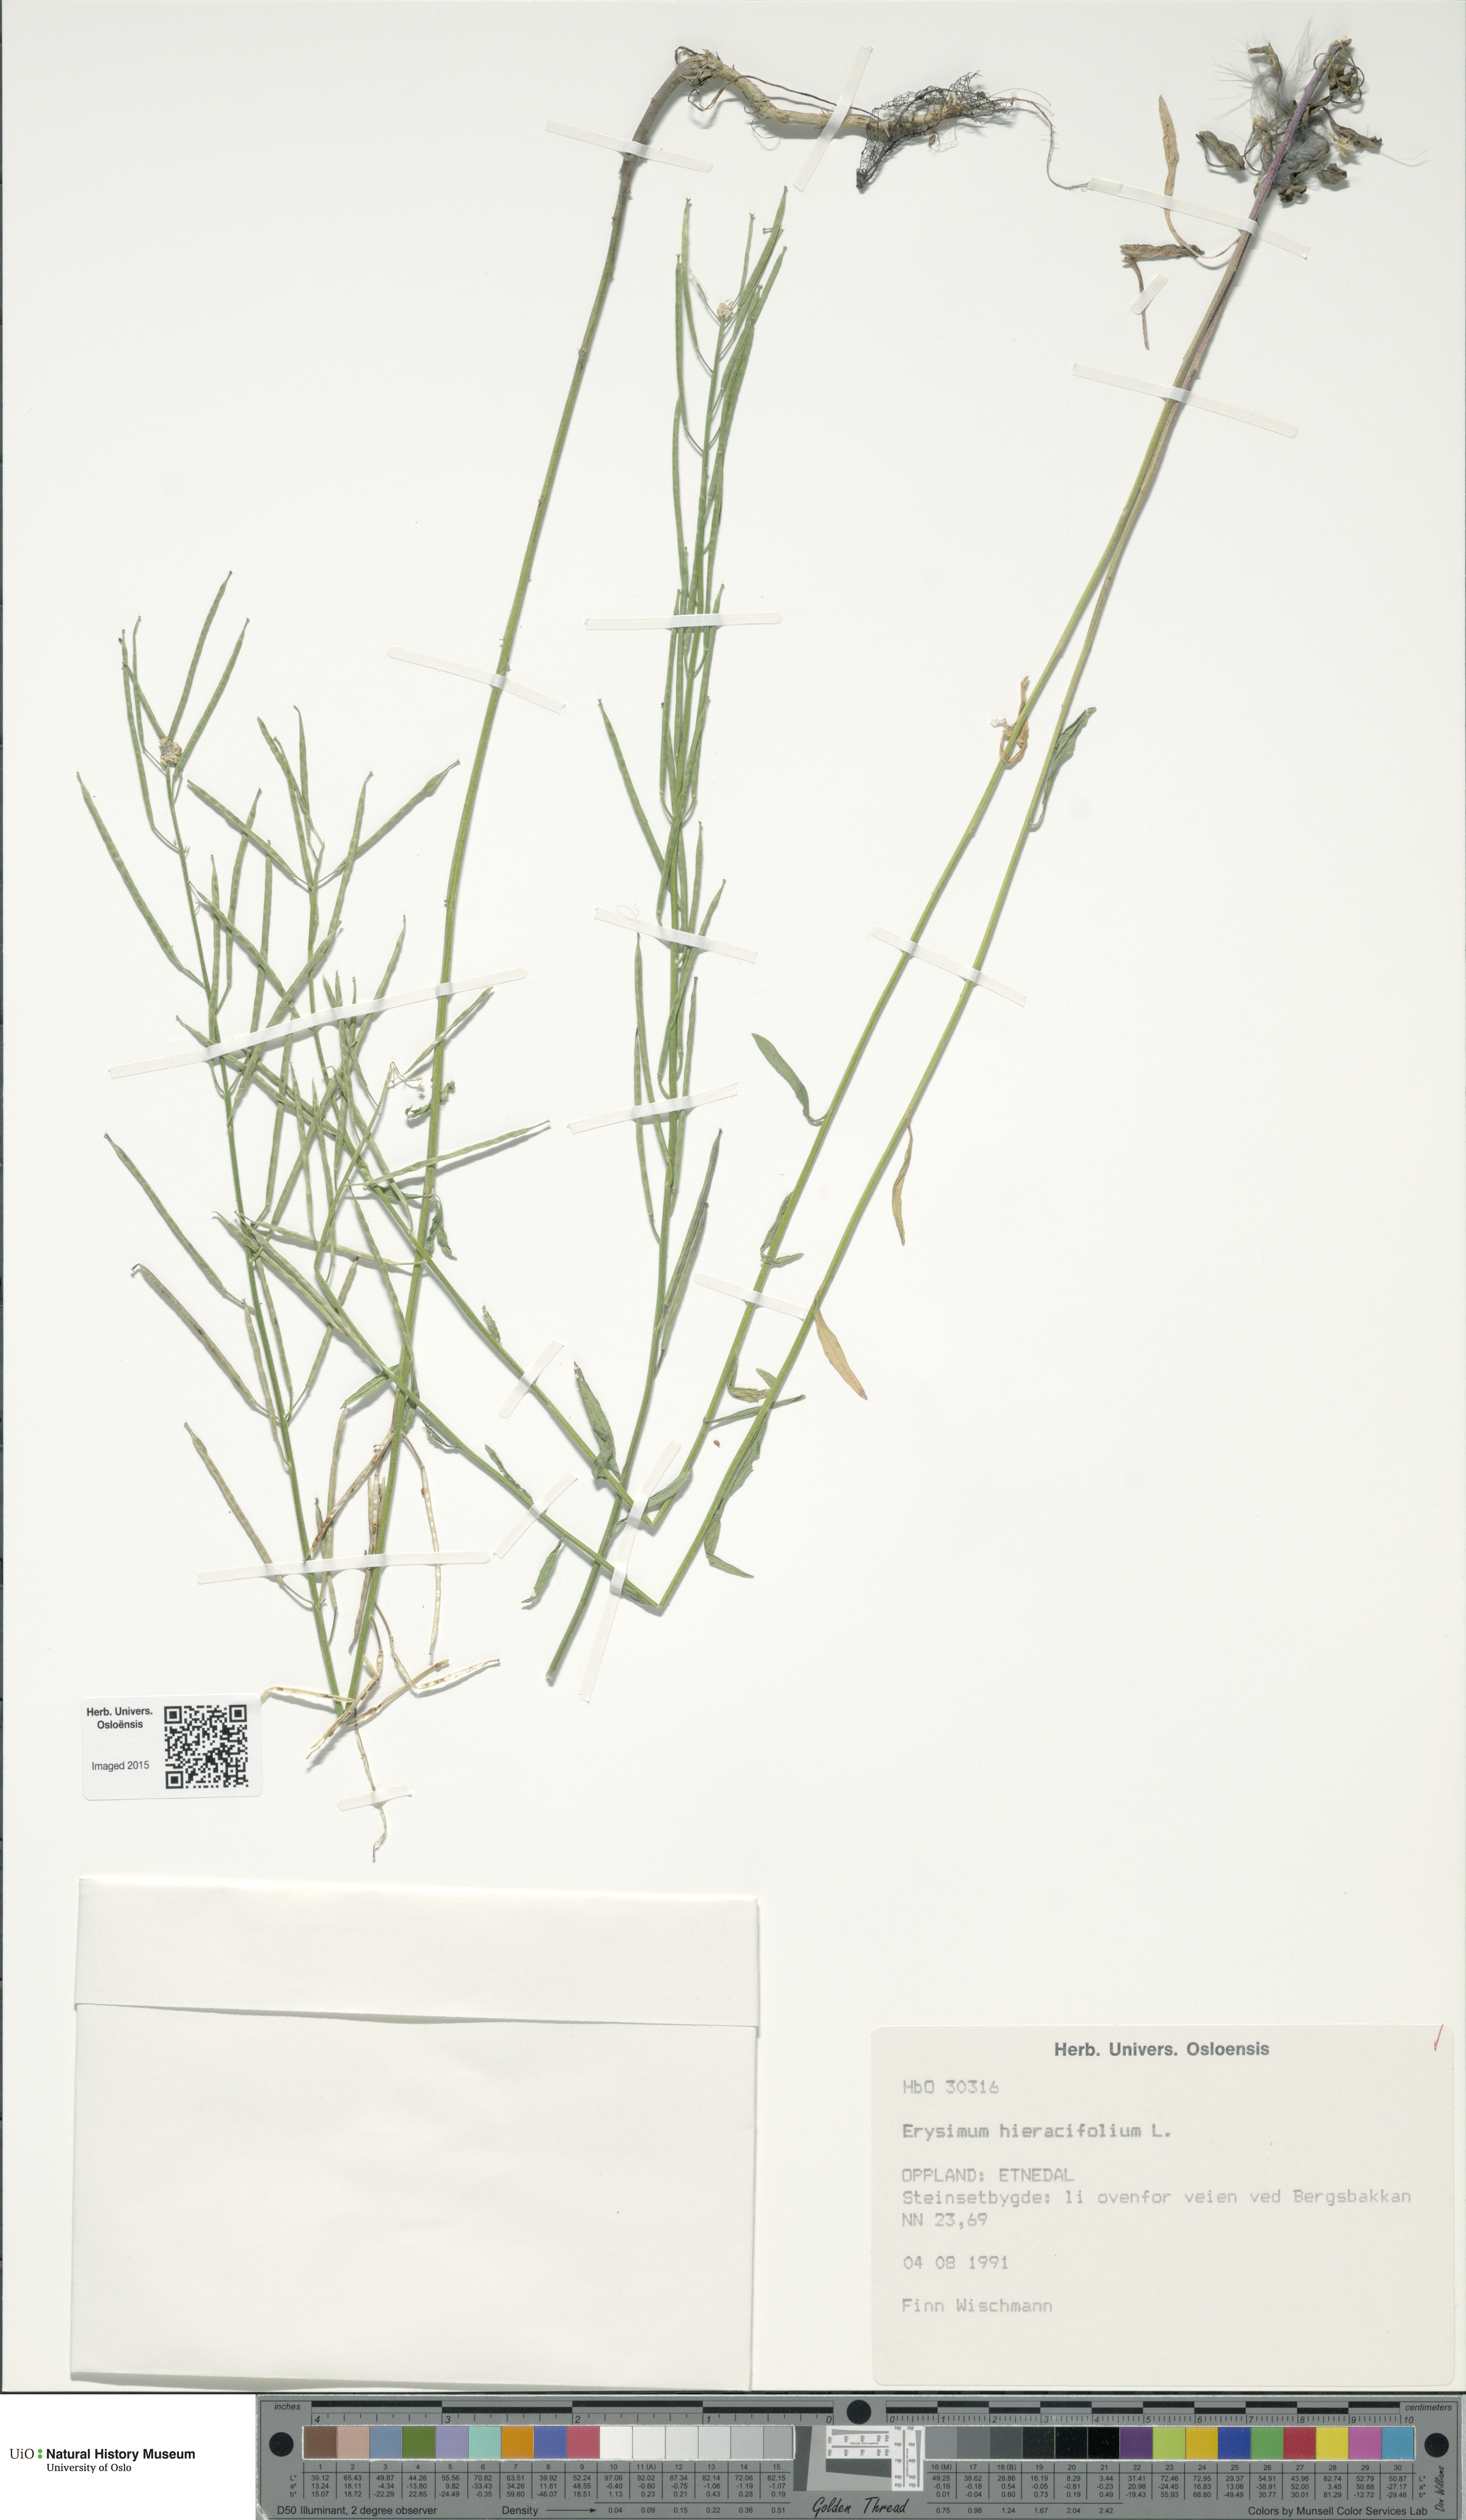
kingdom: Plantae
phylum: Tracheophyta
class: Magnoliopsida
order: Brassicales
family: Brassicaceae
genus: Erysimum
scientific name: Erysimum hieraciifolium
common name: European wallflower
